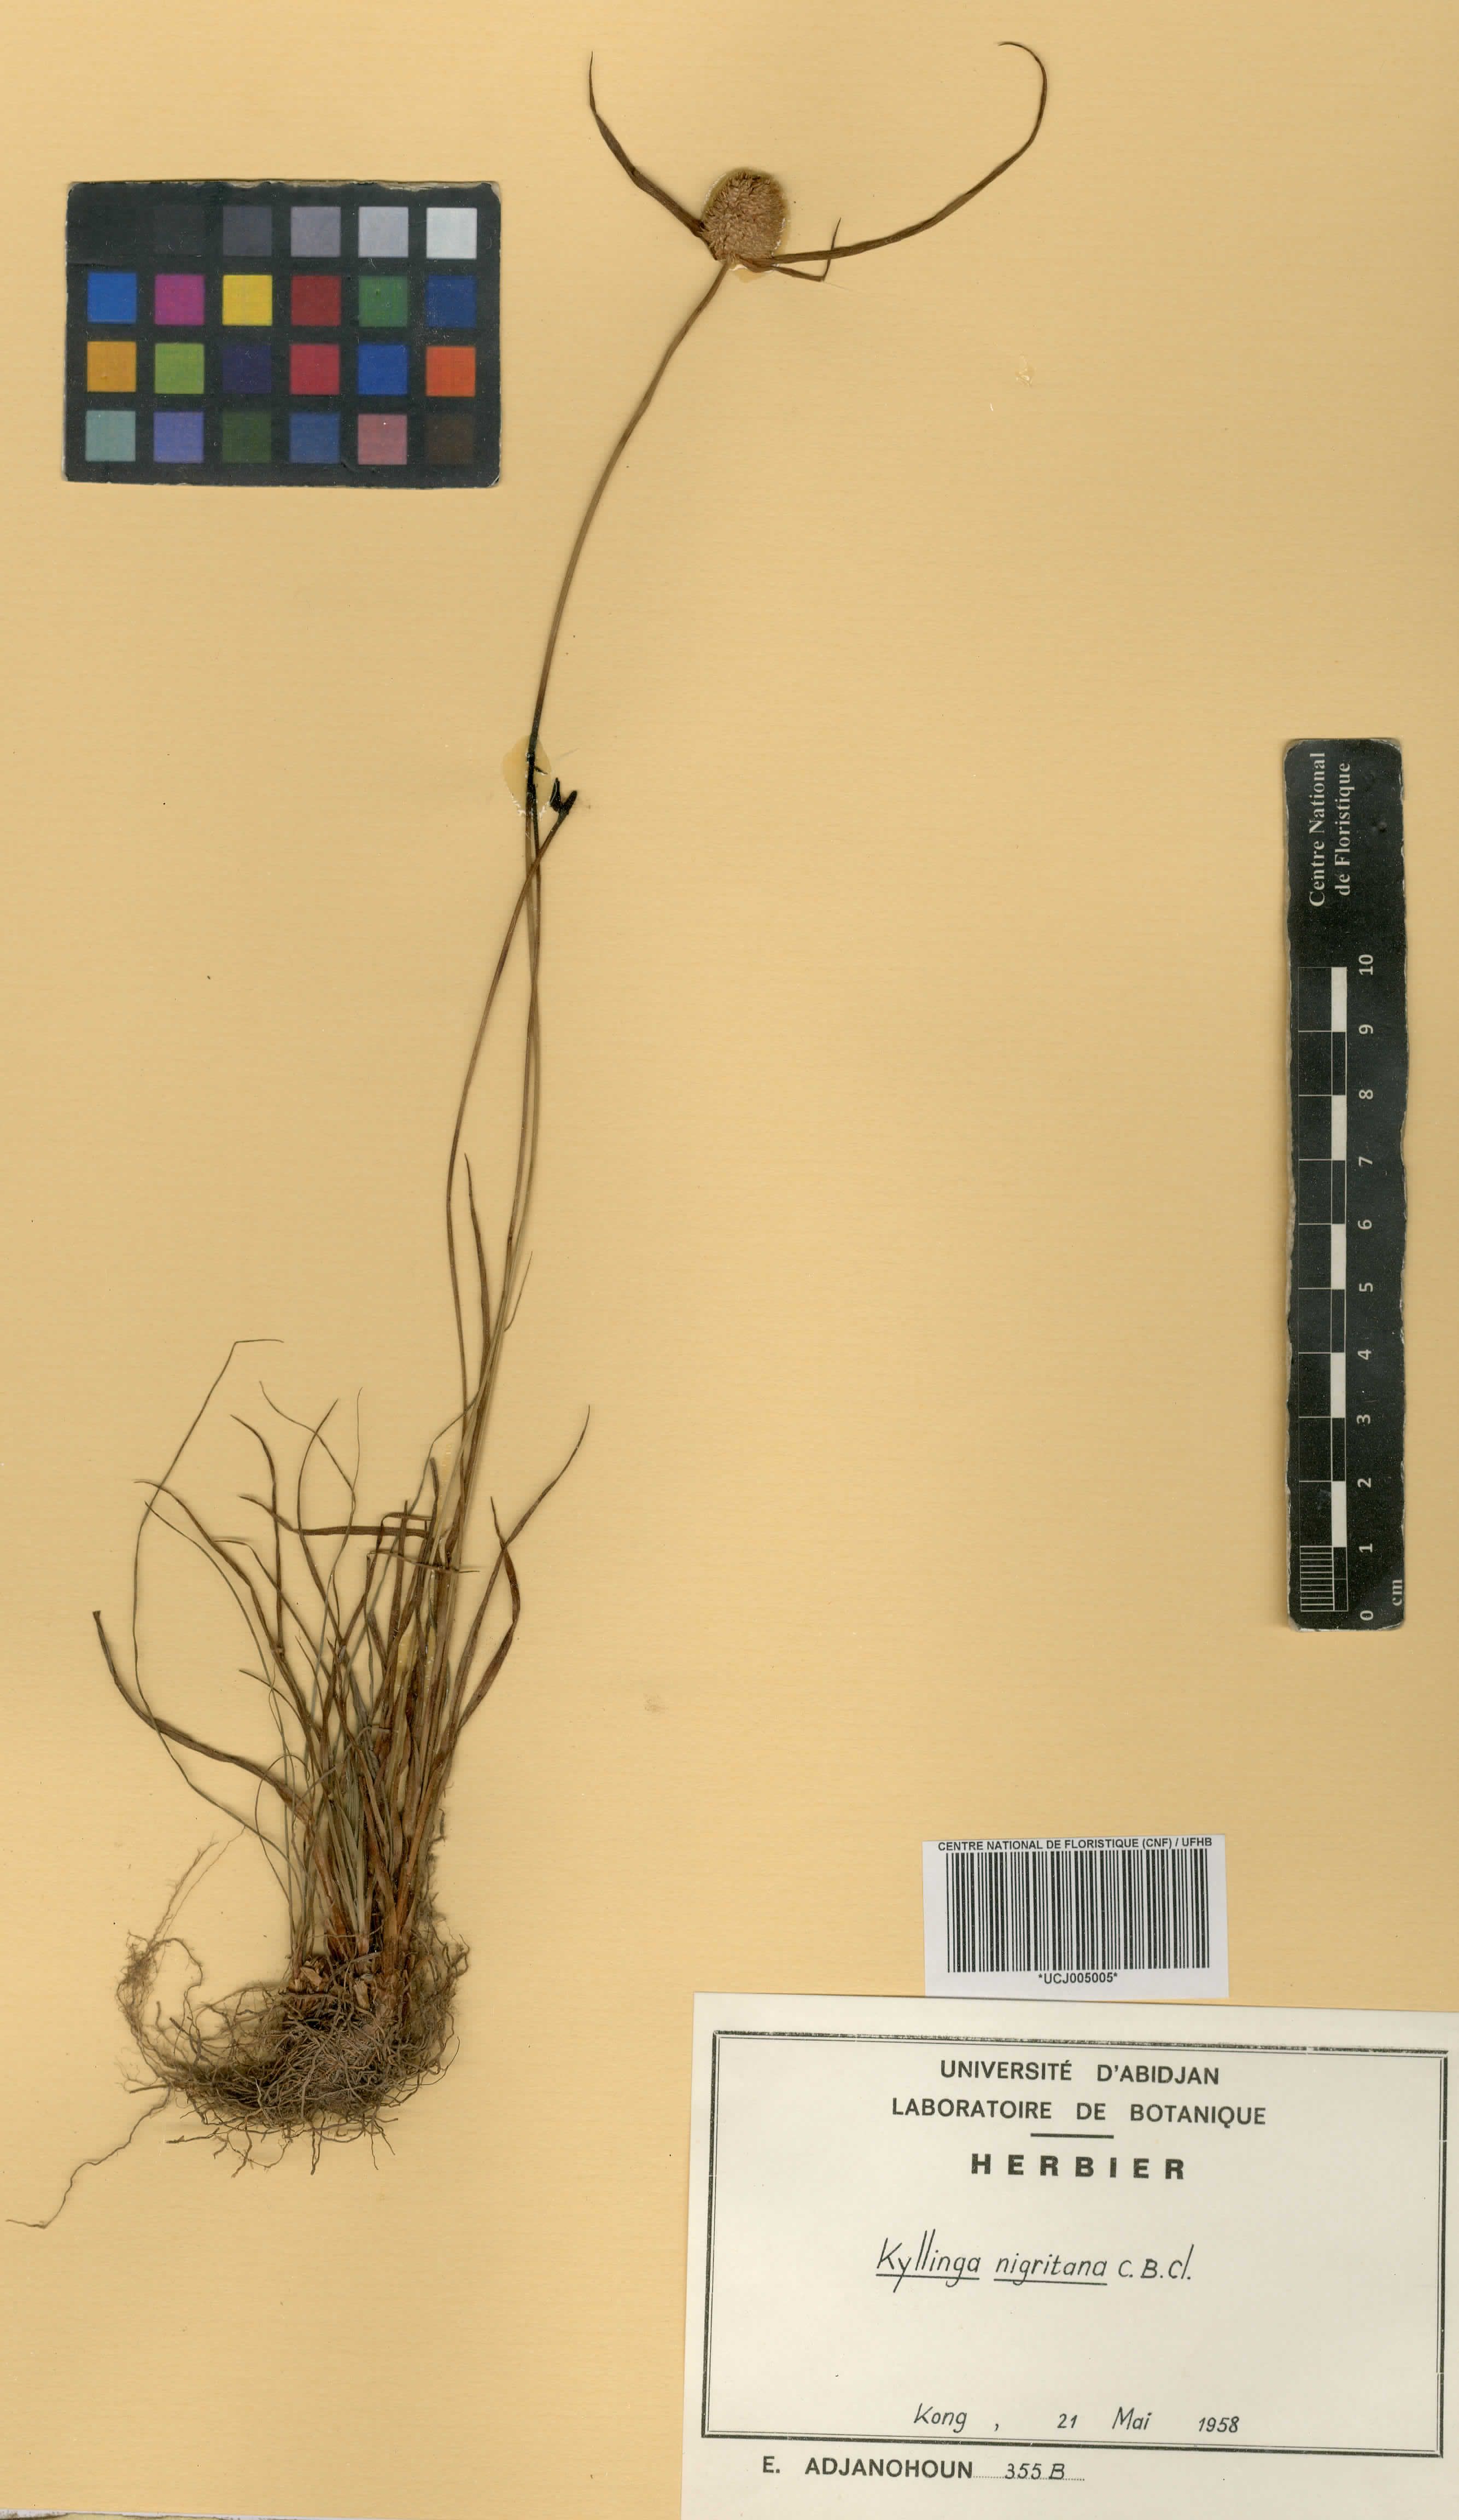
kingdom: Plantae
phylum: Tracheophyta
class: Liliopsida
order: Poales
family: Cyperaceae
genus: Cyperus
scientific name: Cyperus alatus
